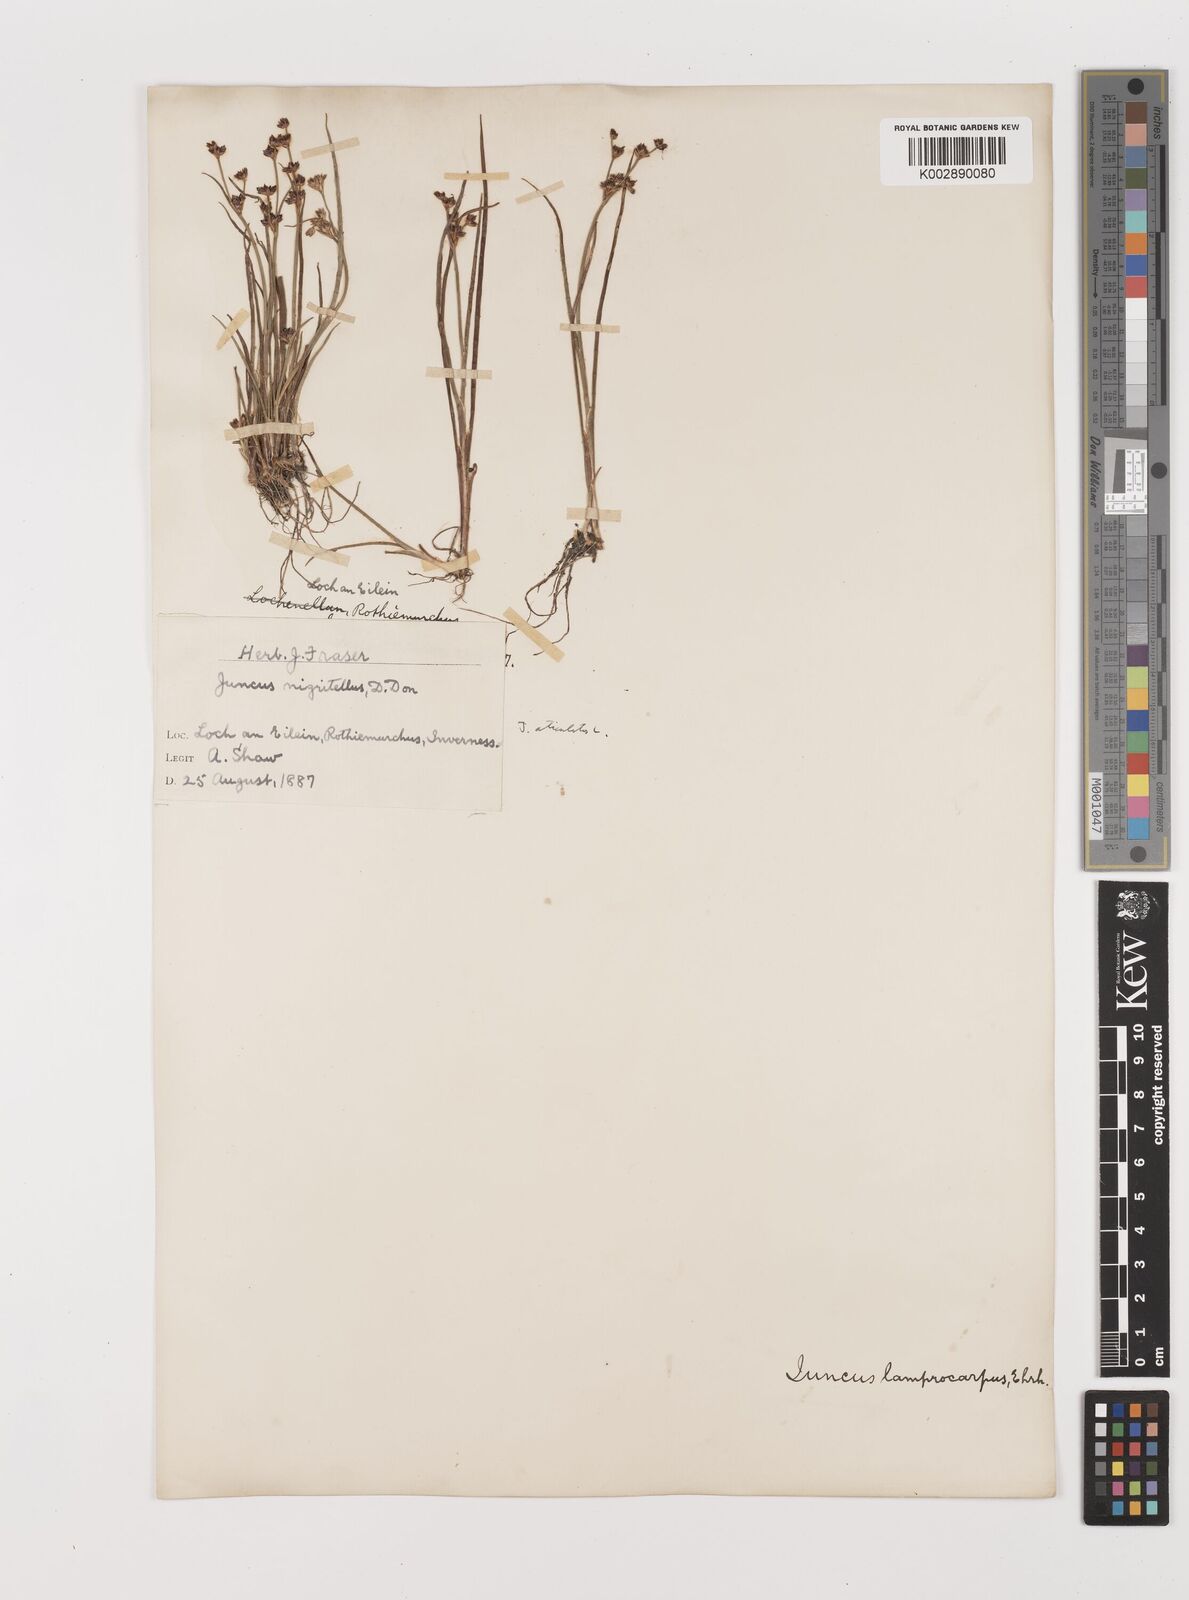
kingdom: Plantae
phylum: Tracheophyta
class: Liliopsida
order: Poales
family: Juncaceae
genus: Juncus
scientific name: Juncus articulatus
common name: Jointed rush
